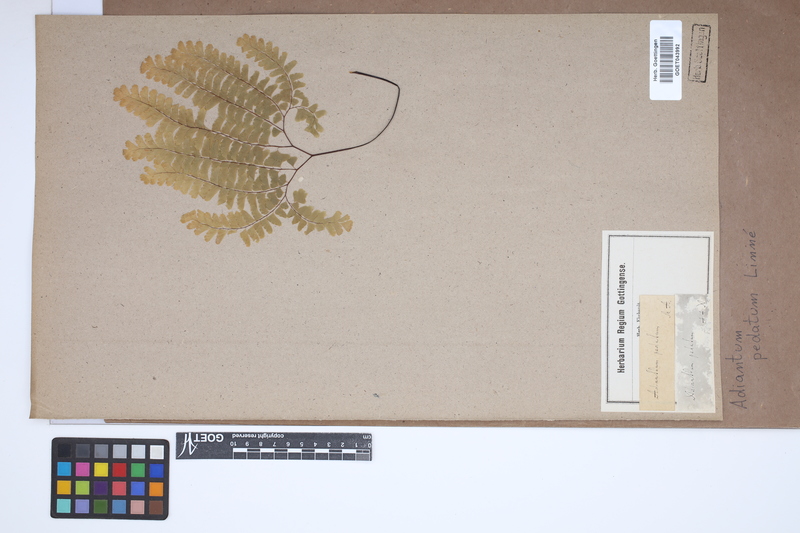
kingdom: Plantae
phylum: Tracheophyta
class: Polypodiopsida
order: Polypodiales
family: Pteridaceae
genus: Adiantum
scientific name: Adiantum pedatum
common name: Five-finger fern
